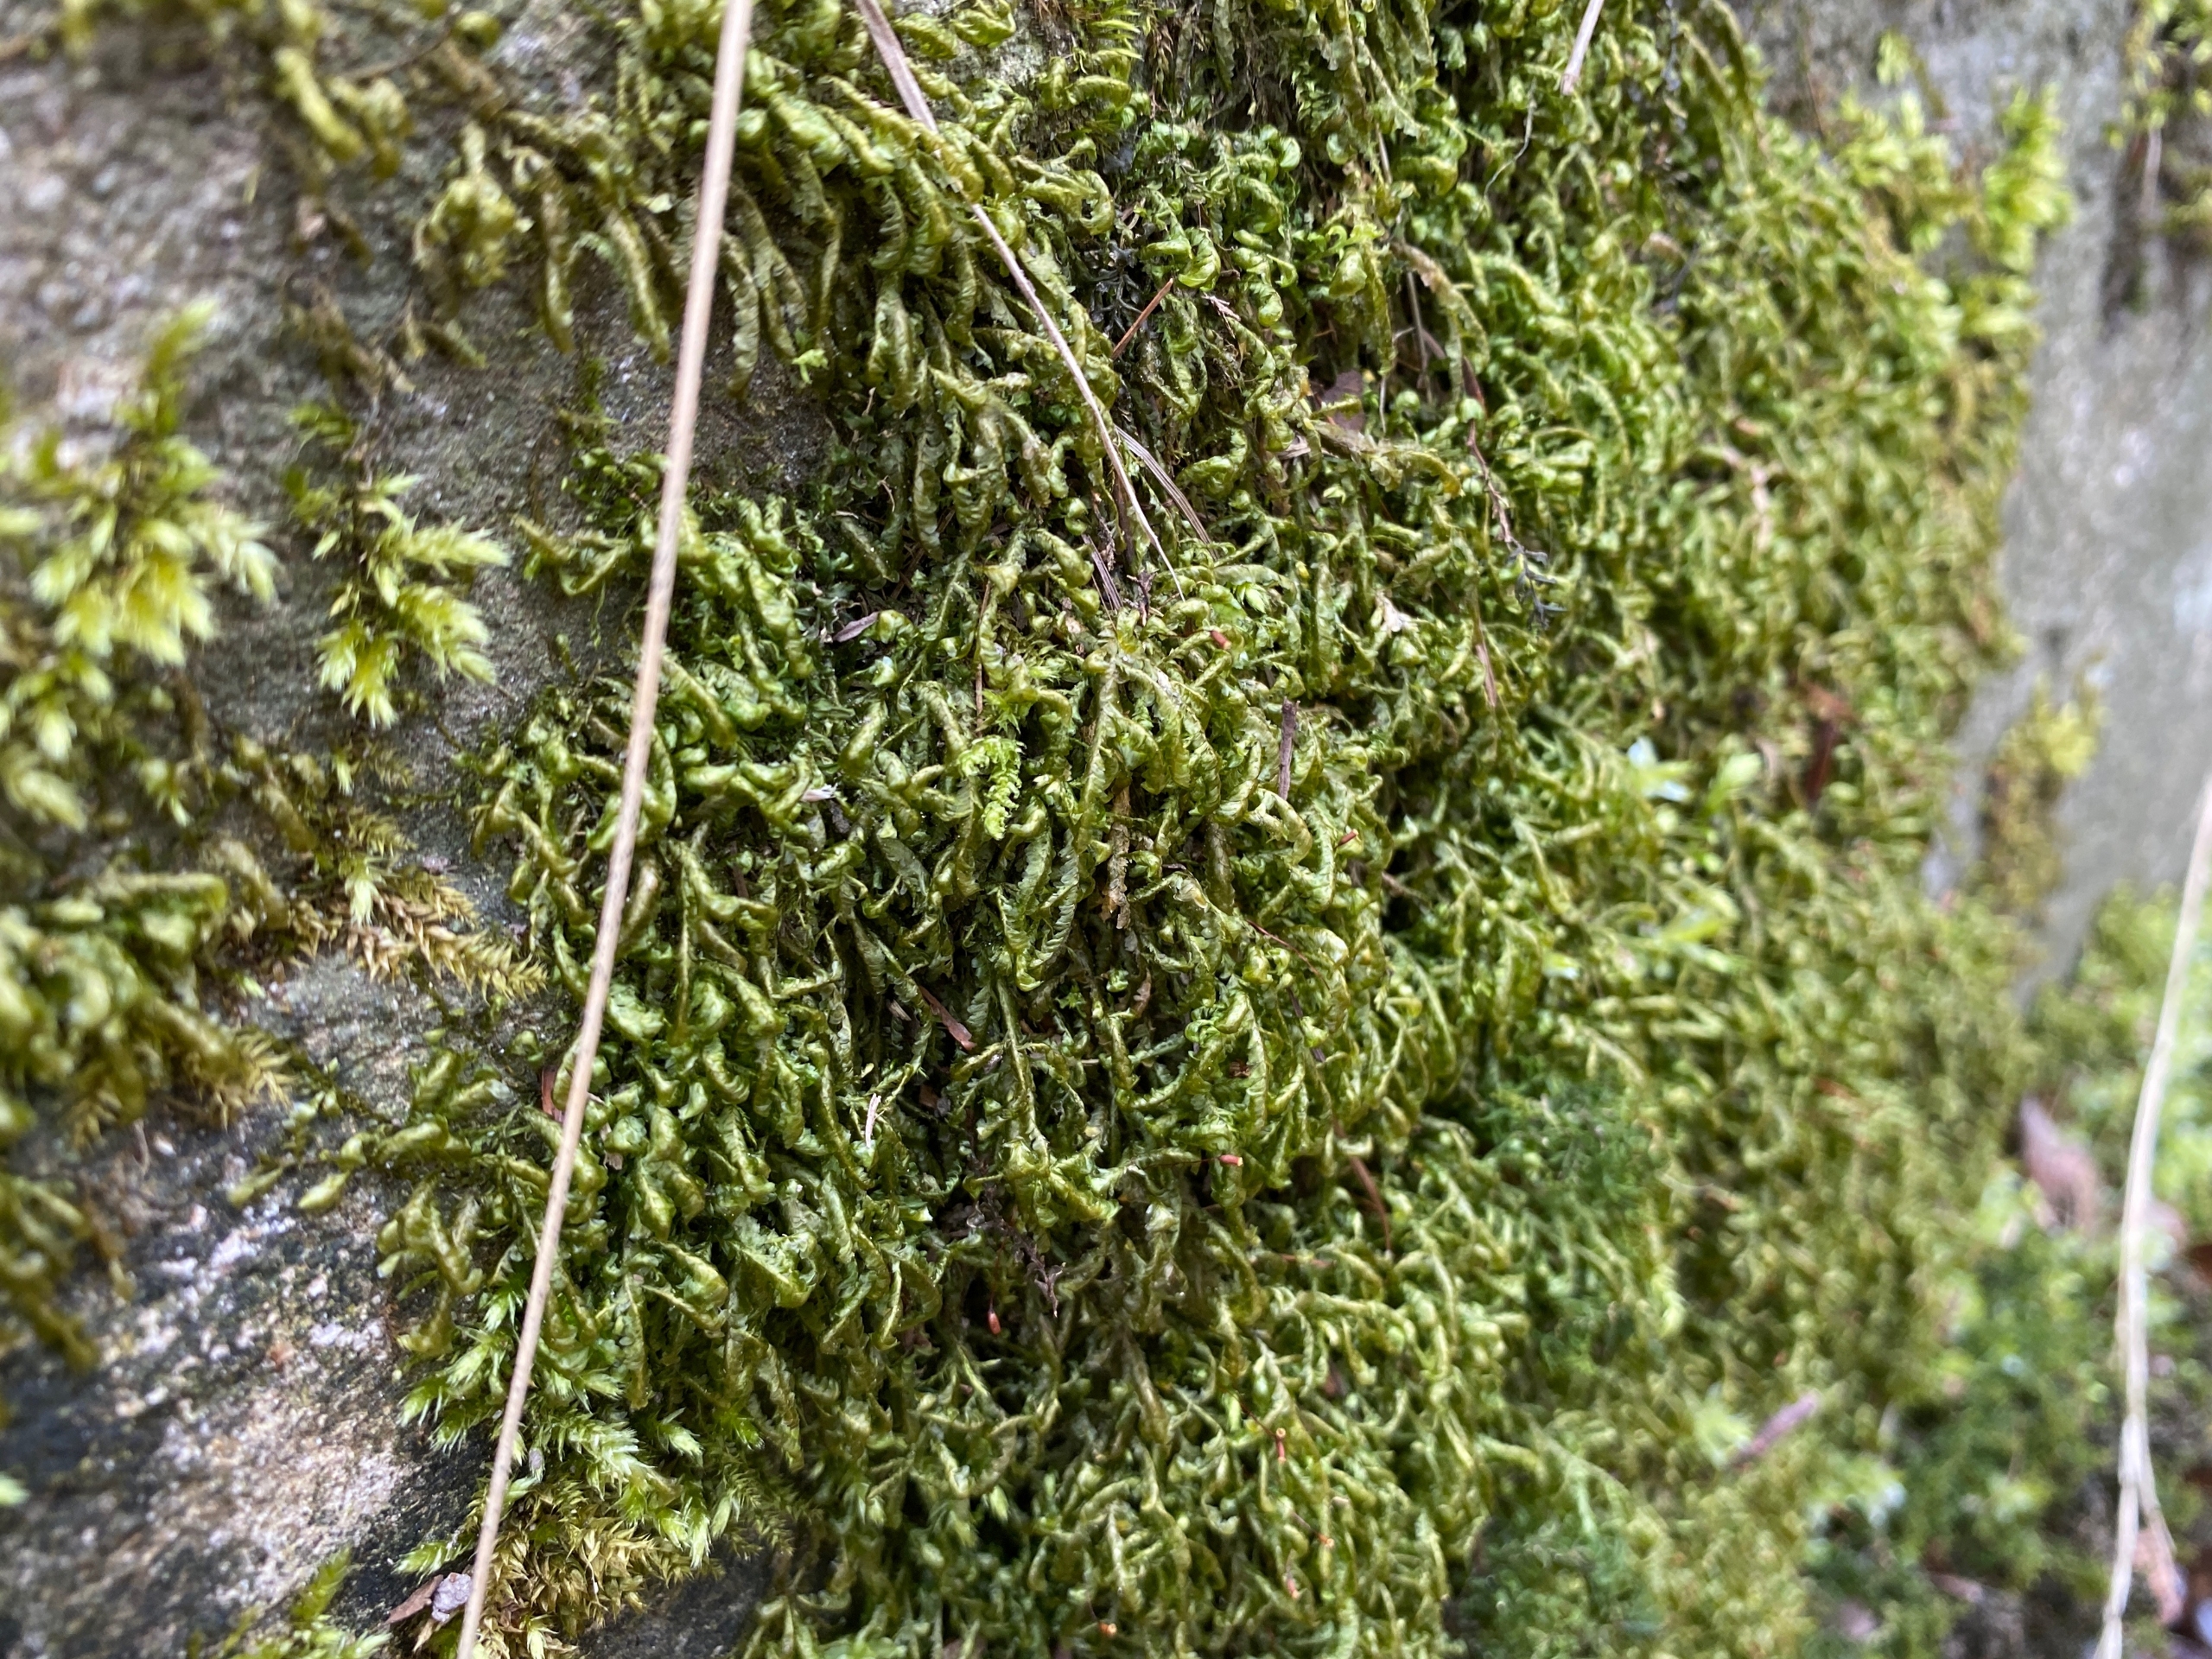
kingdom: Plantae
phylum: Bryophyta
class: Bryopsida
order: Hypnales
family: Neckeraceae
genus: Homalia
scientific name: Homalia trichomanoides
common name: Skov-tungemos
